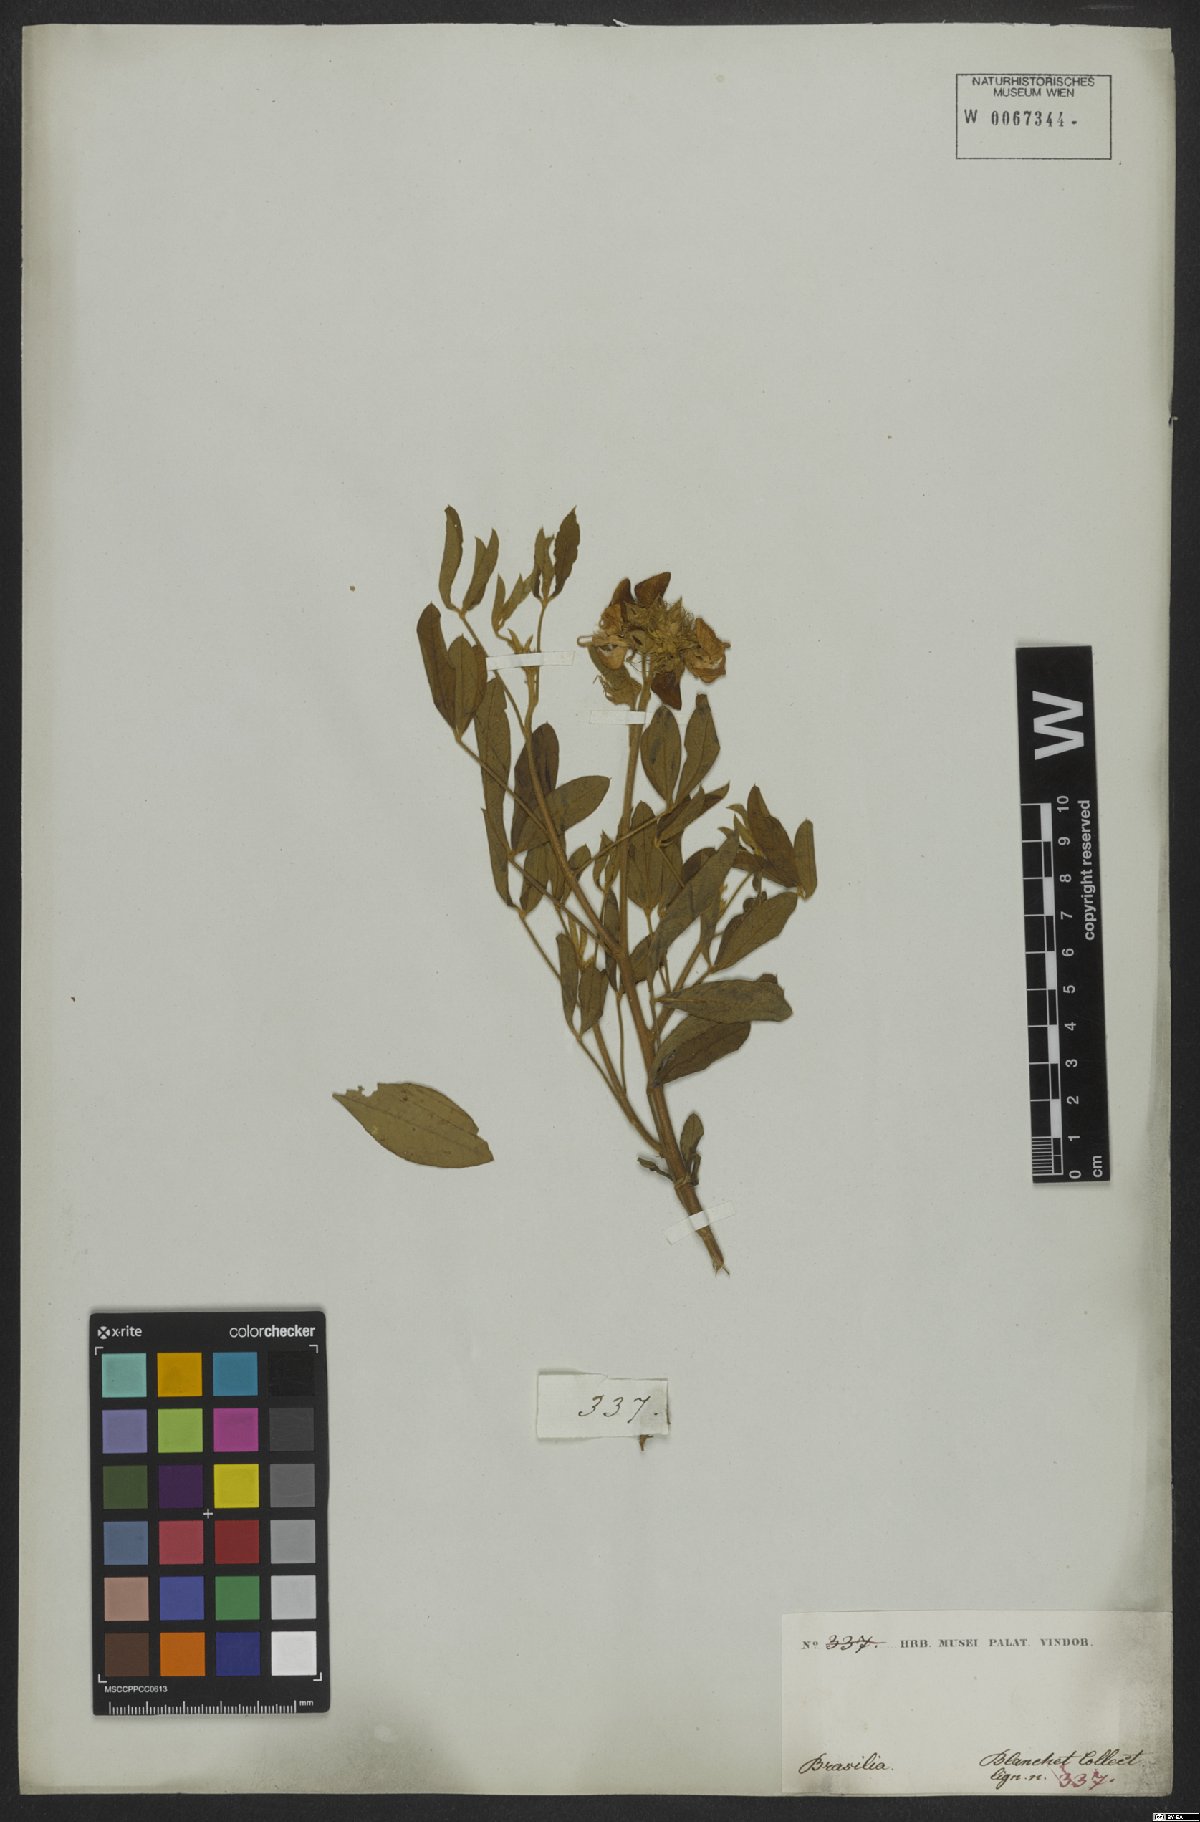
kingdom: Plantae
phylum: Tracheophyta
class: Magnoliopsida
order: Fabales
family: Fabaceae
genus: Crotalaria
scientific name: Crotalaria micans
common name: Caracas rattlebox
